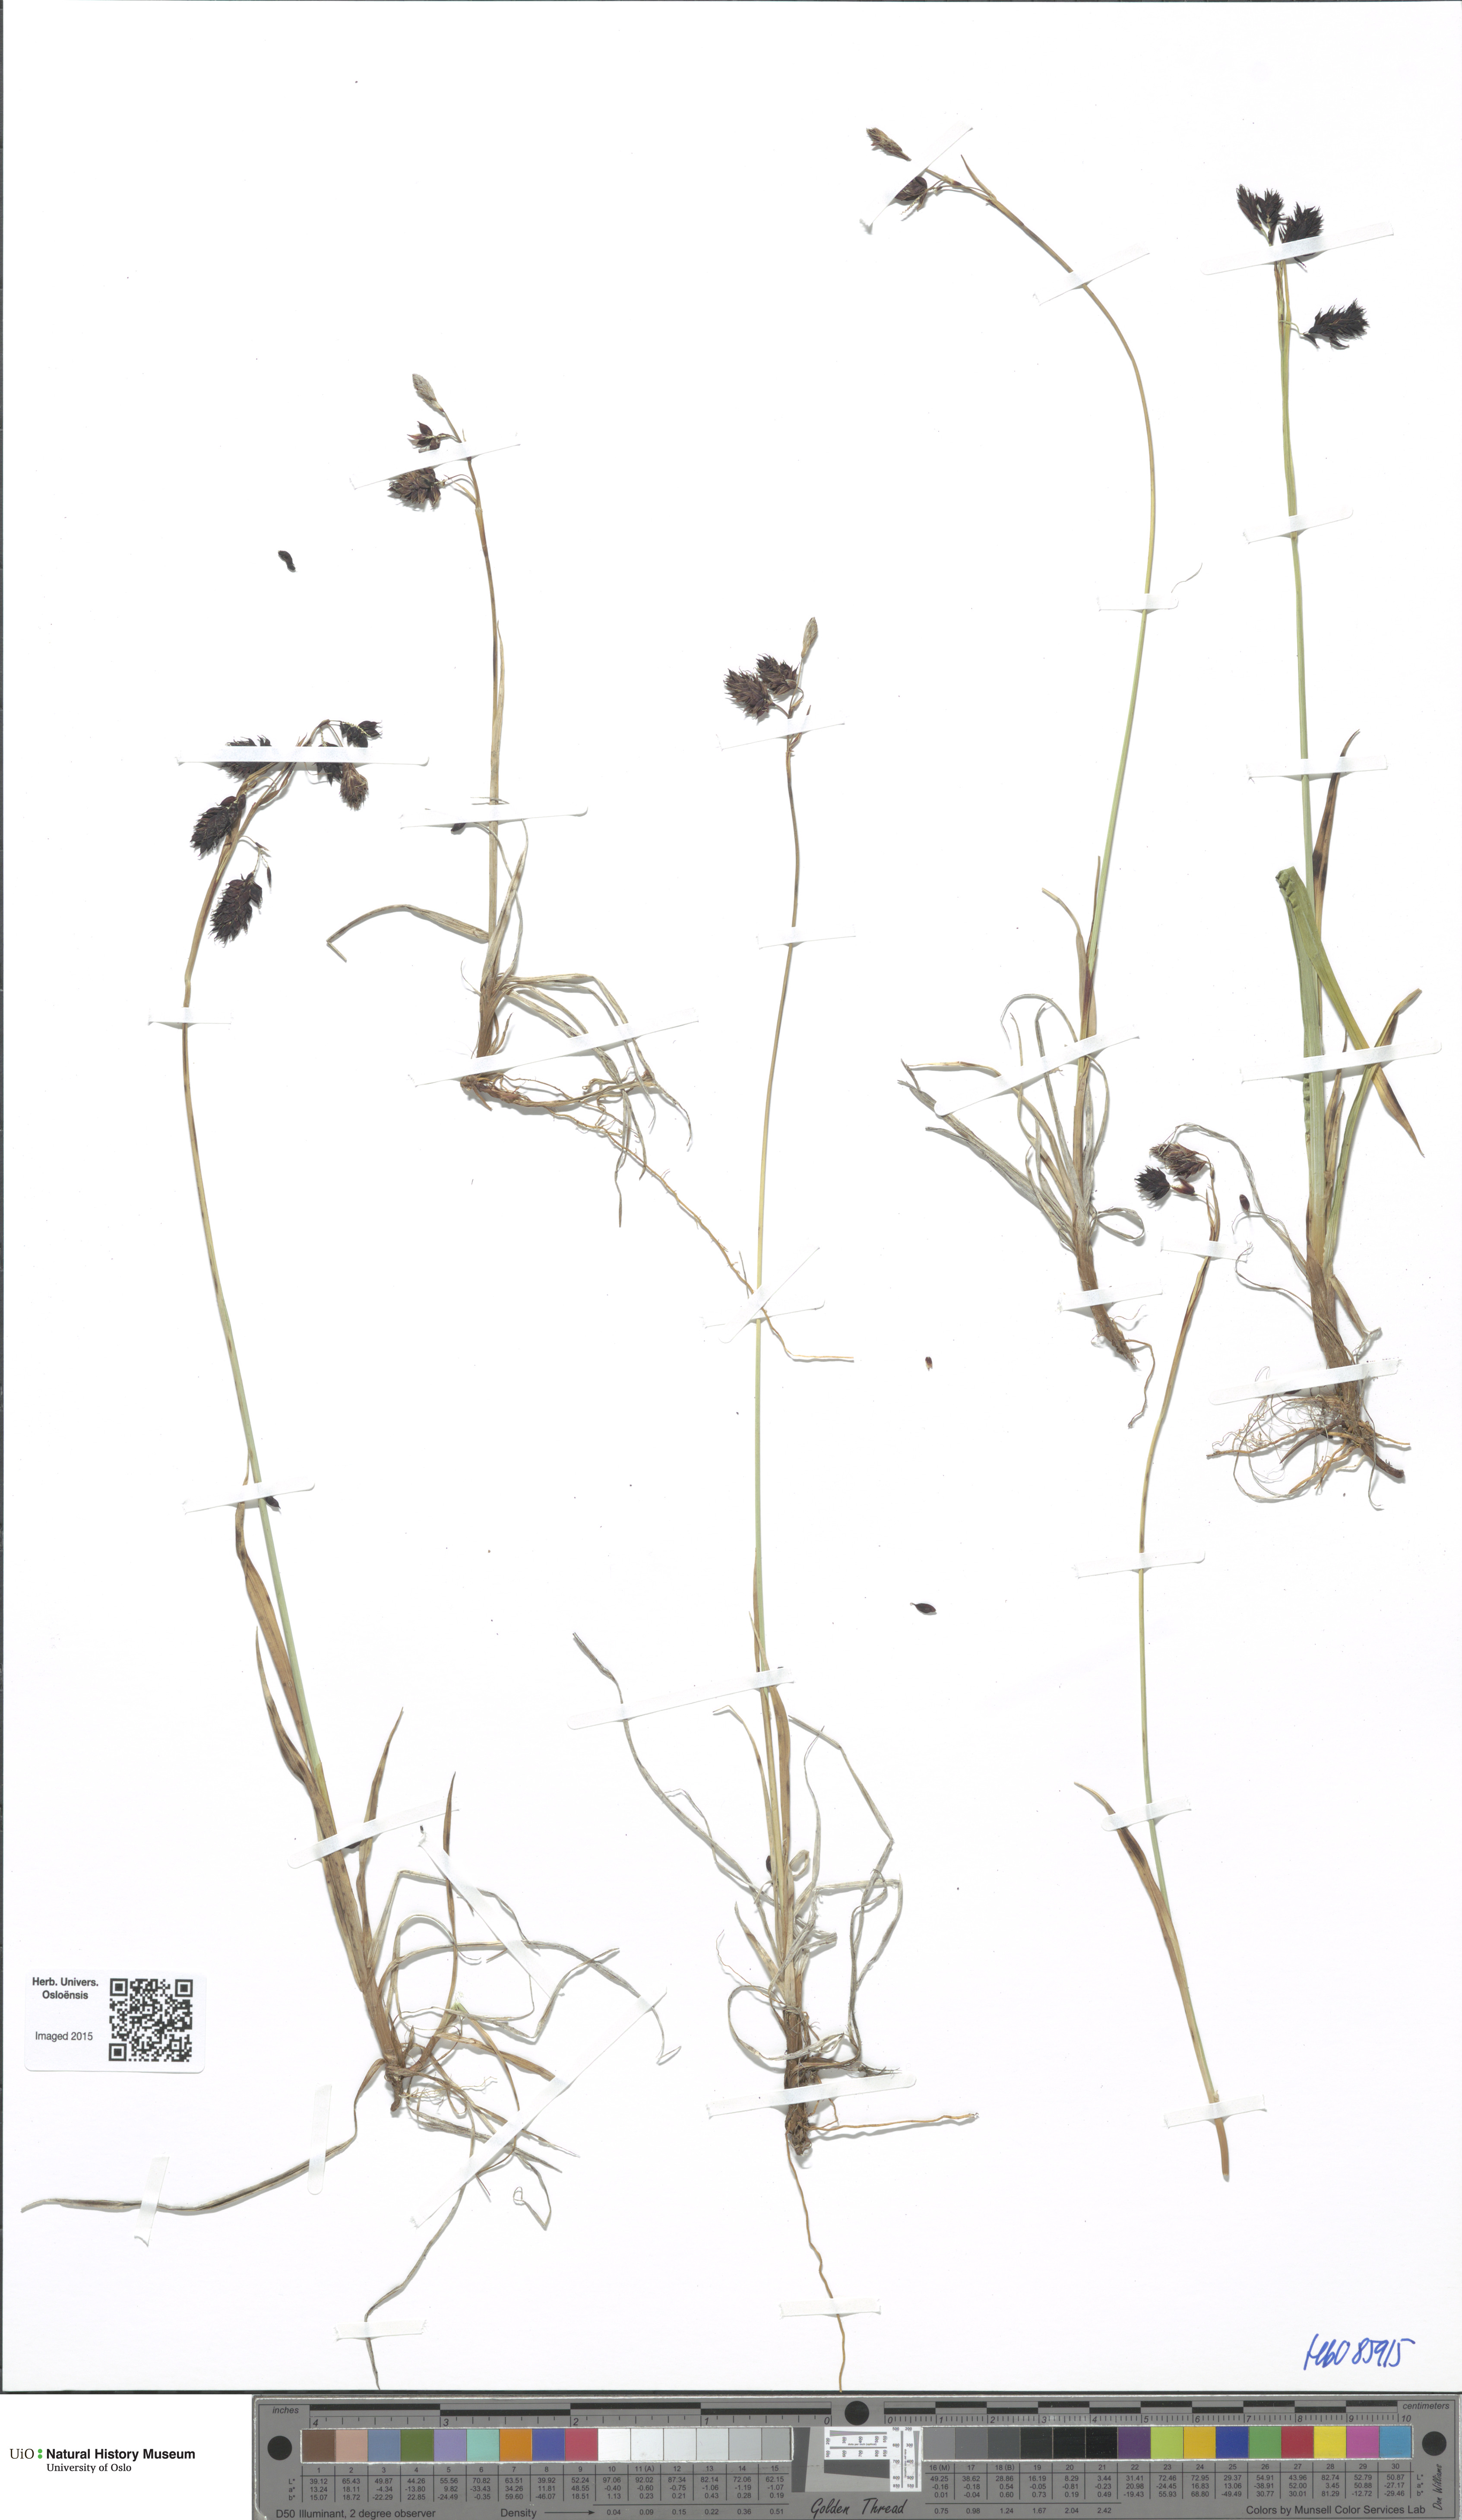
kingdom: Plantae
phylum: Tracheophyta
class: Liliopsida
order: Poales
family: Cyperaceae
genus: Carex
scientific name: Carex atrofusca
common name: Scorched alpine-sedge
